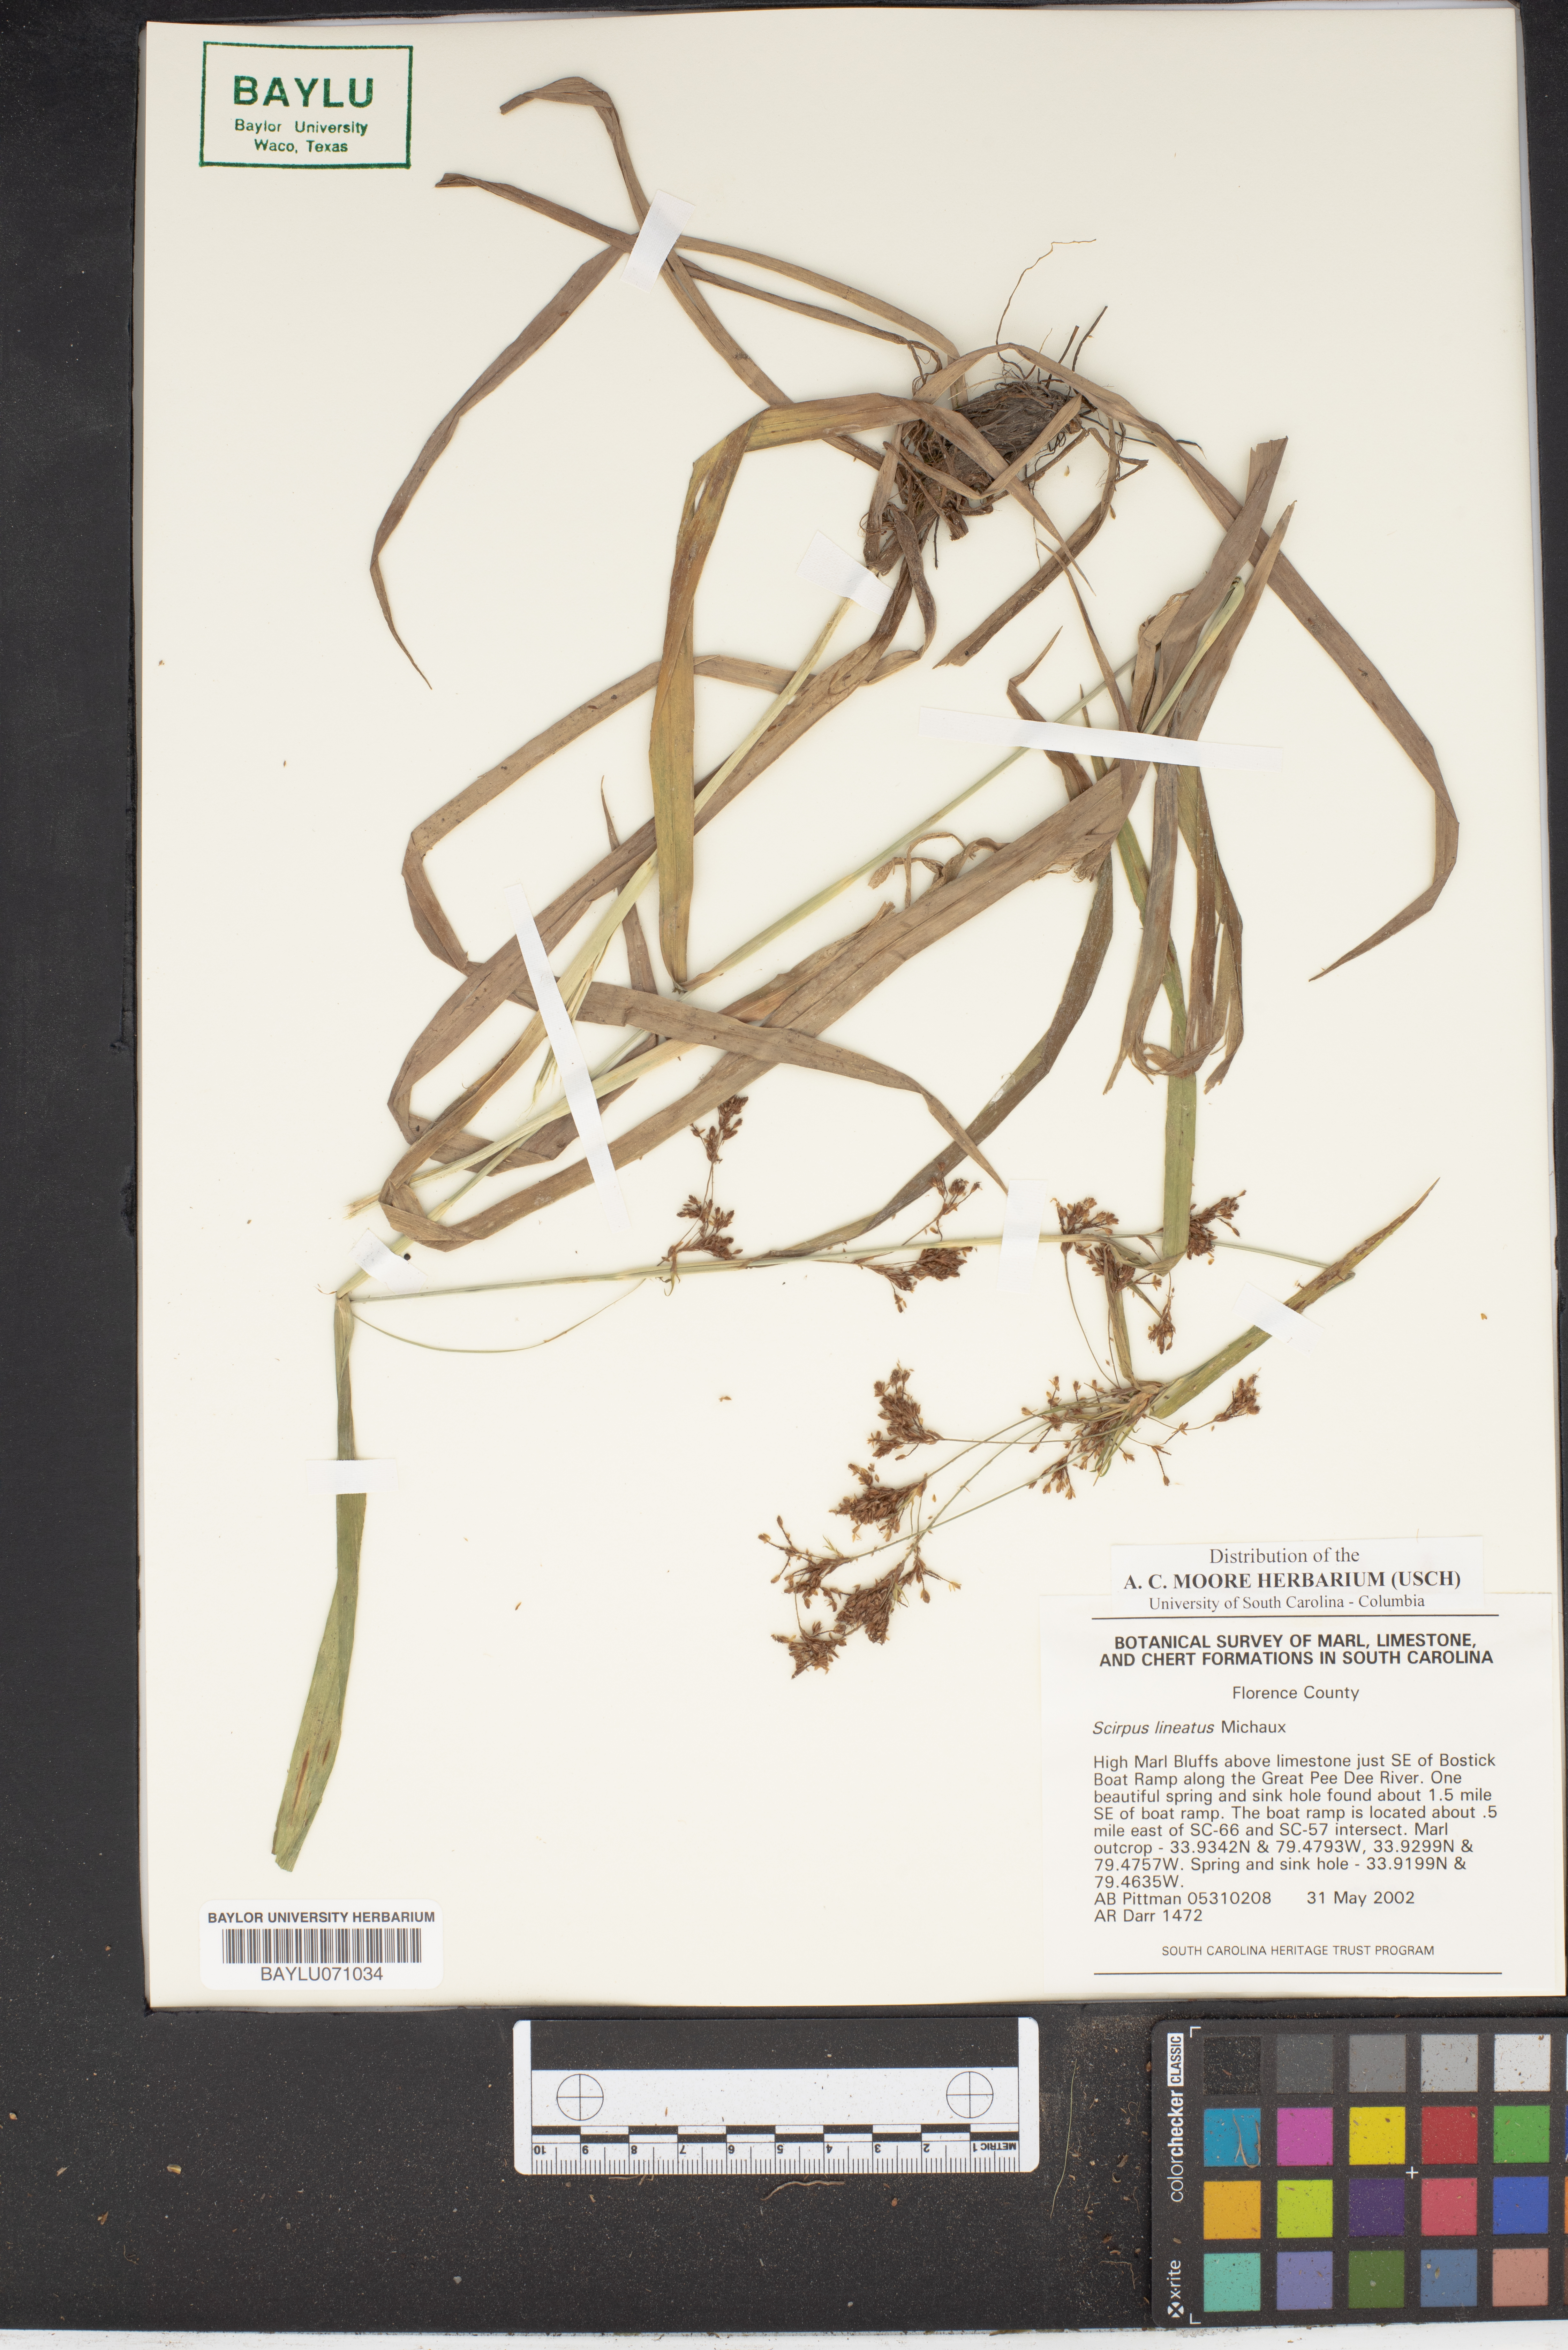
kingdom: Plantae
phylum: Tracheophyta
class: Liliopsida
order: Poales
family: Cyperaceae
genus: Scirpus
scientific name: Scirpus lineatus
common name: Drooping bulrush
